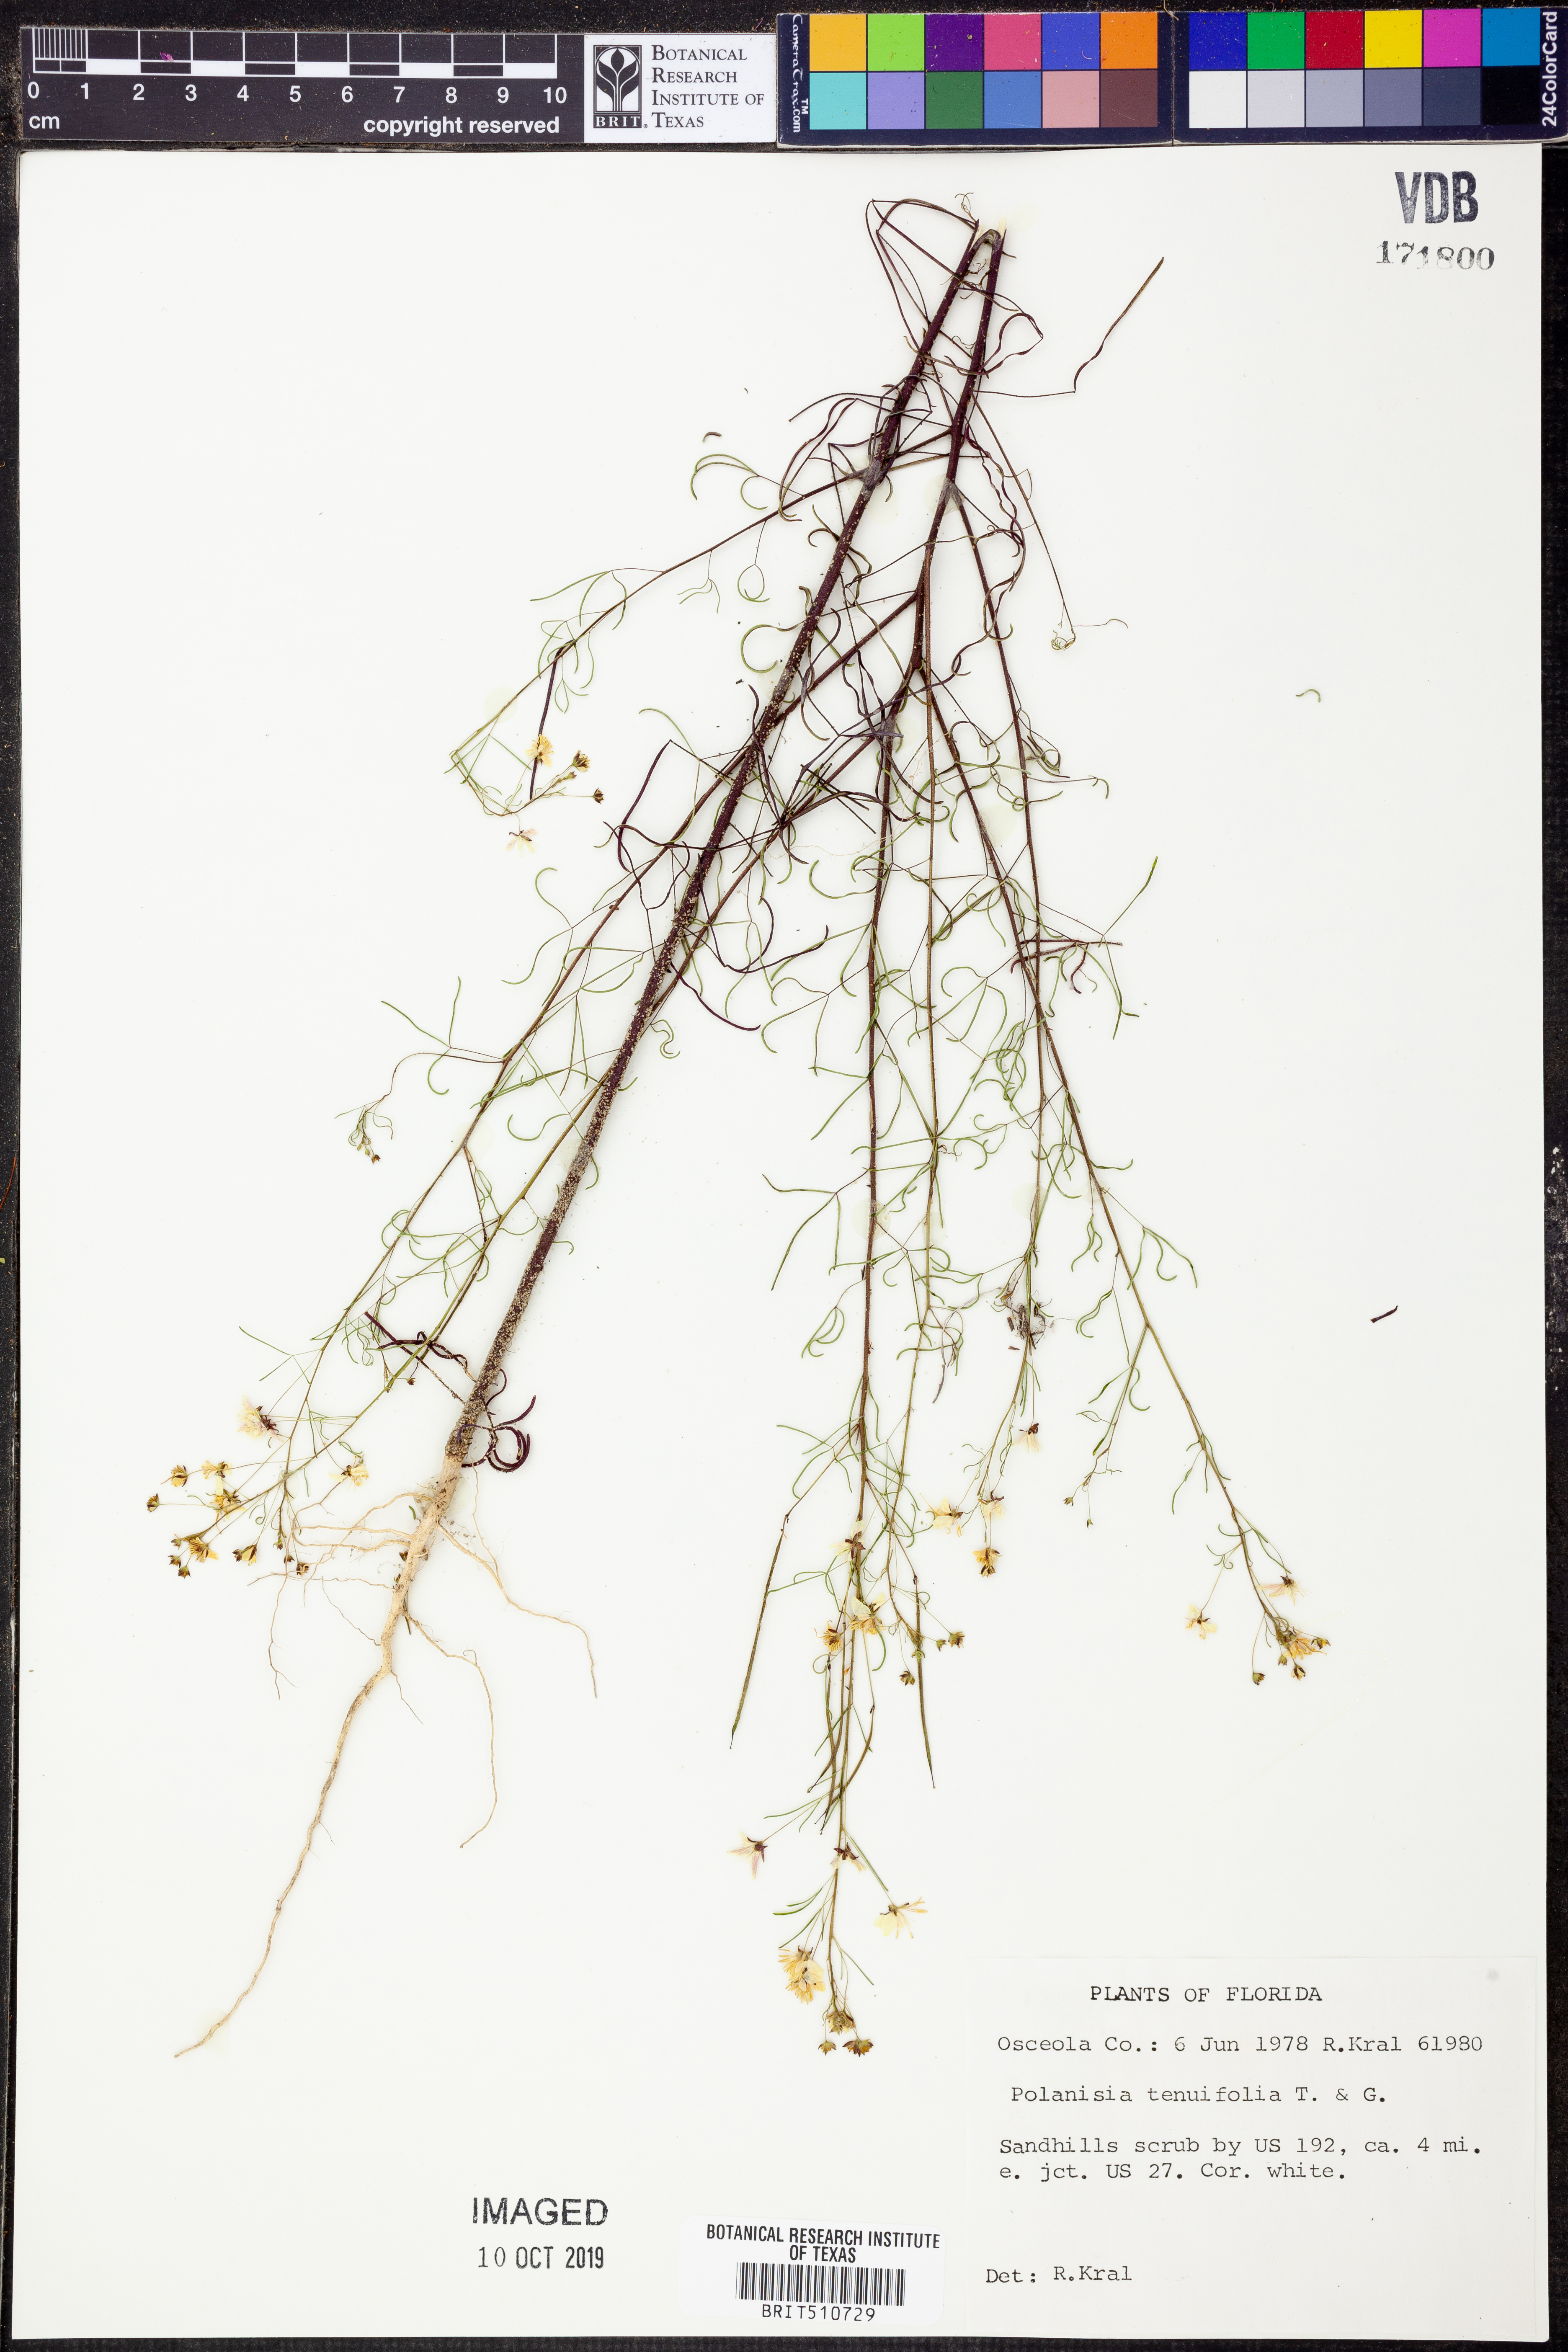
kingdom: Plantae
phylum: Tracheophyta
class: Magnoliopsida
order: Brassicales
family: Cleomaceae
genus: Polanisia
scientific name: Polanisia tenuifolia
